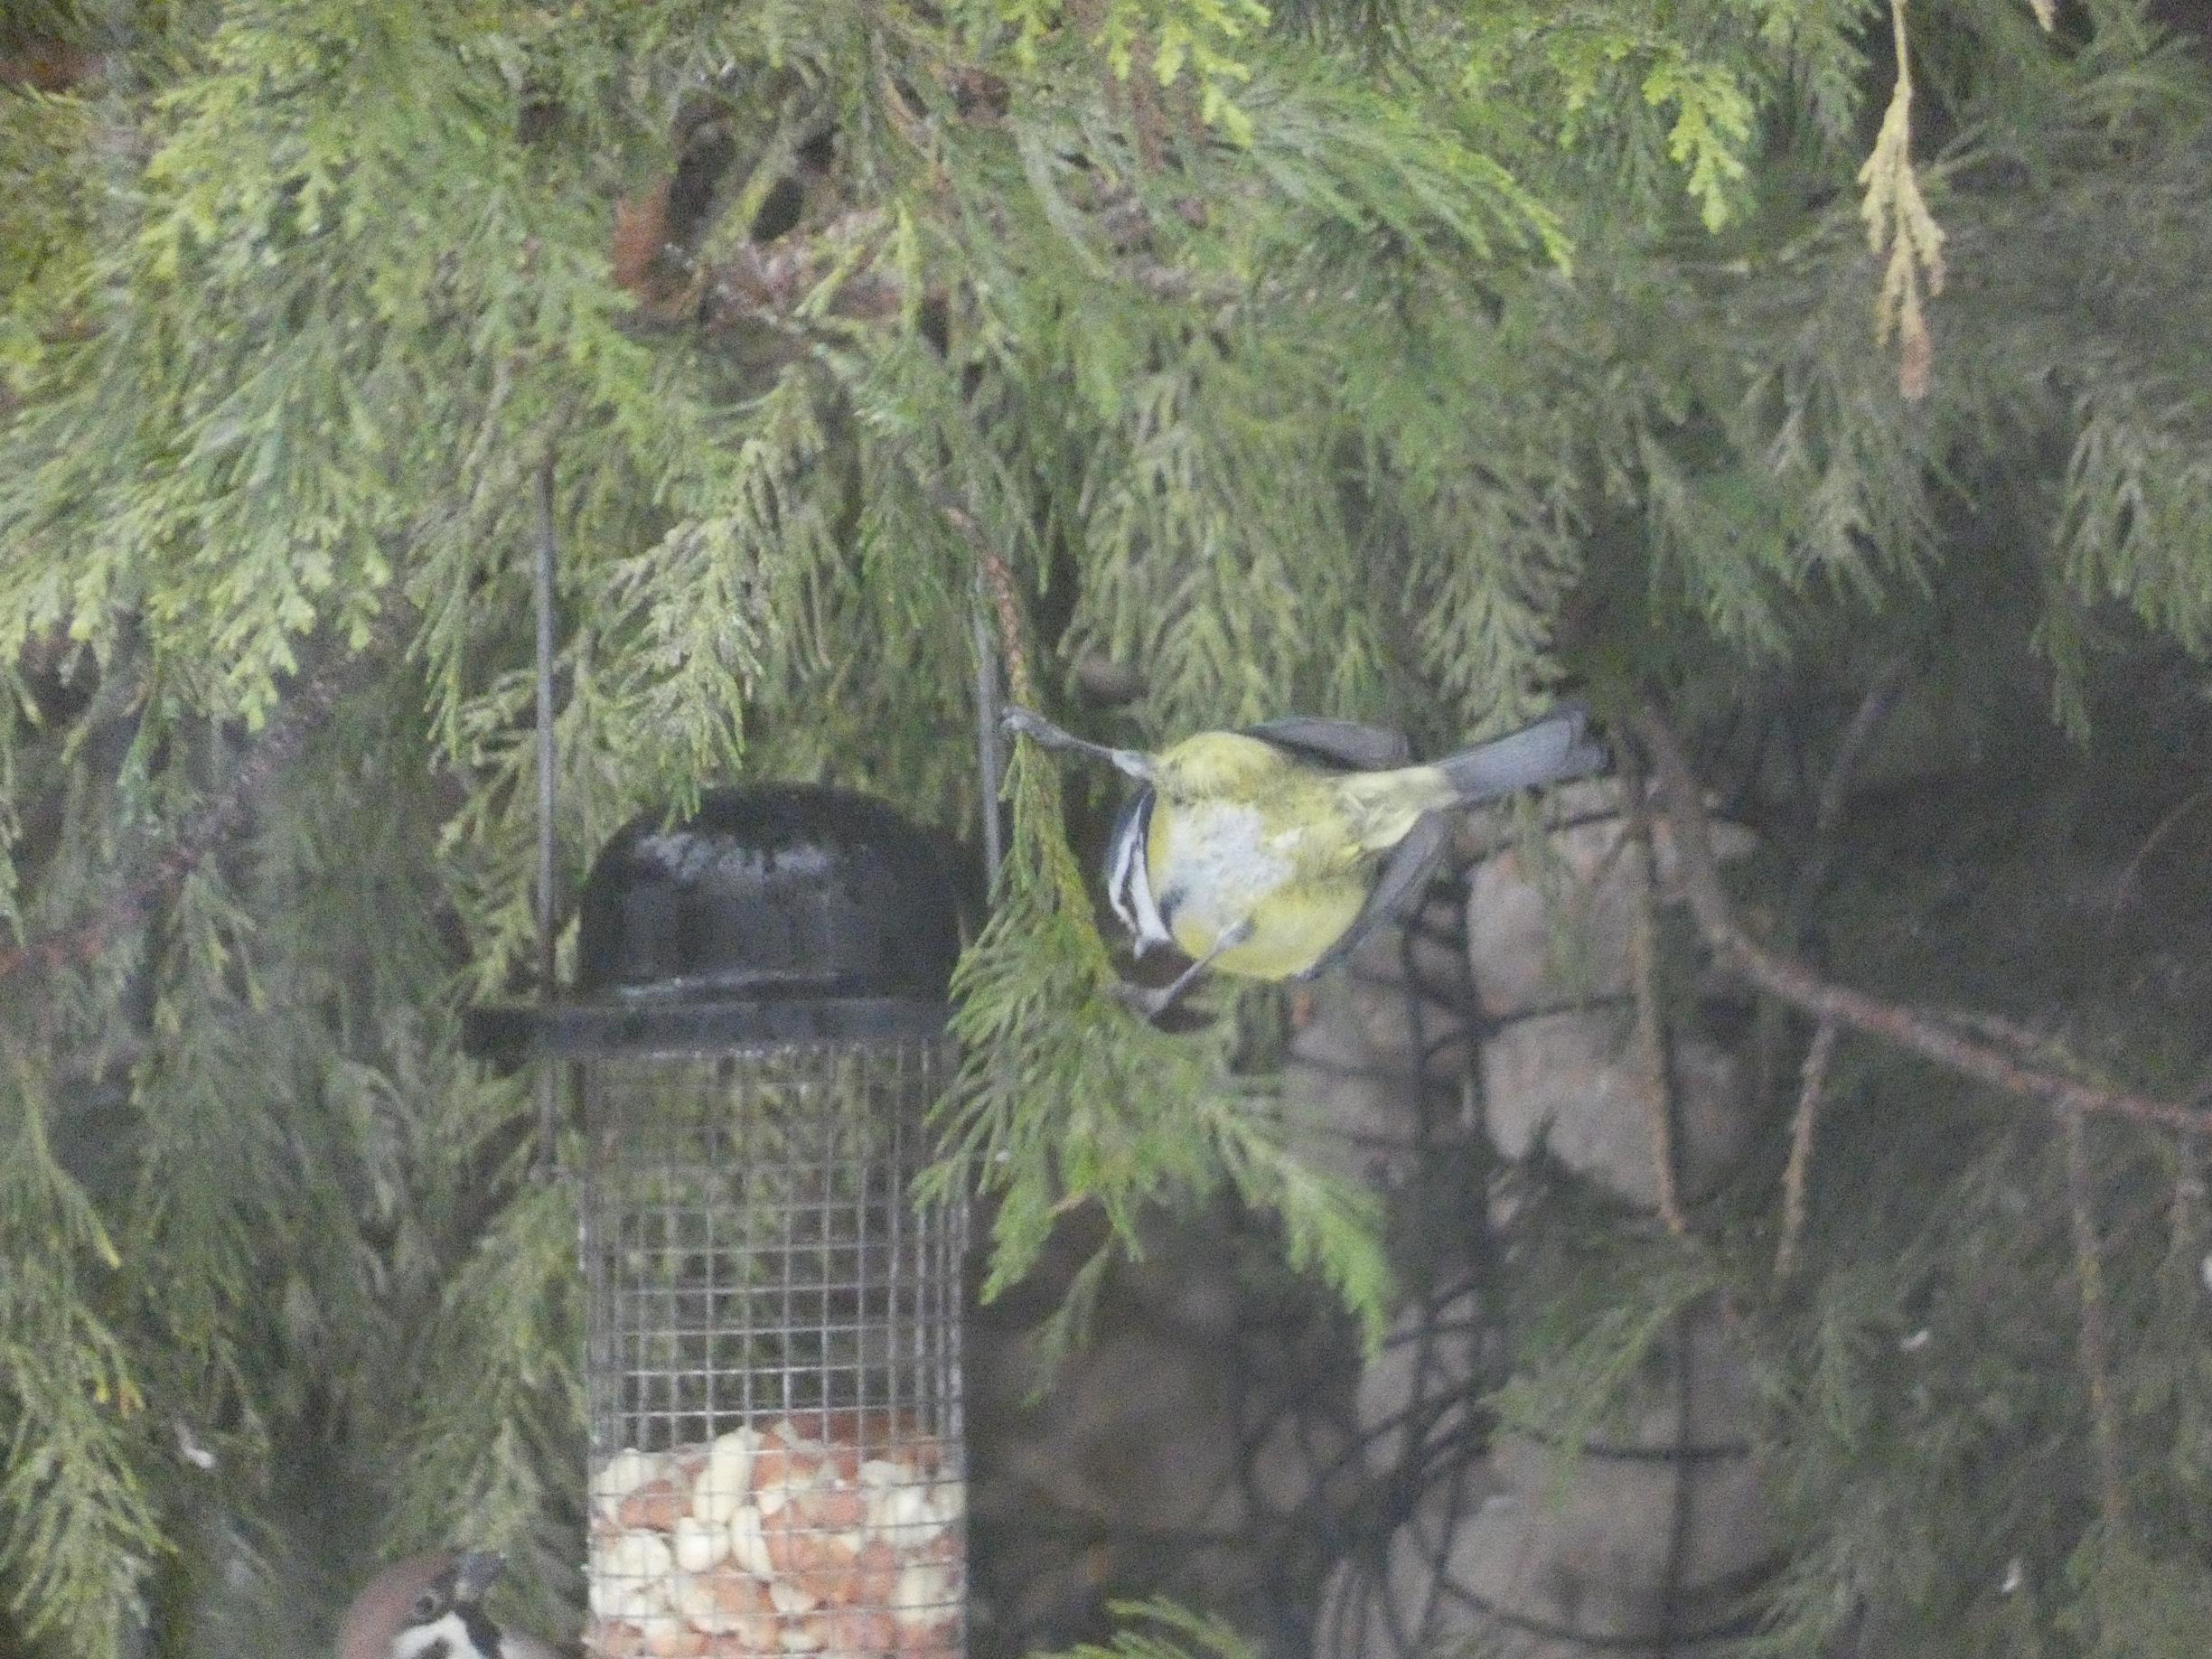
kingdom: Animalia
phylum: Chordata
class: Aves
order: Passeriformes
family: Paridae
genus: Cyanistes
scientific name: Cyanistes caeruleus
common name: Blåmejse
